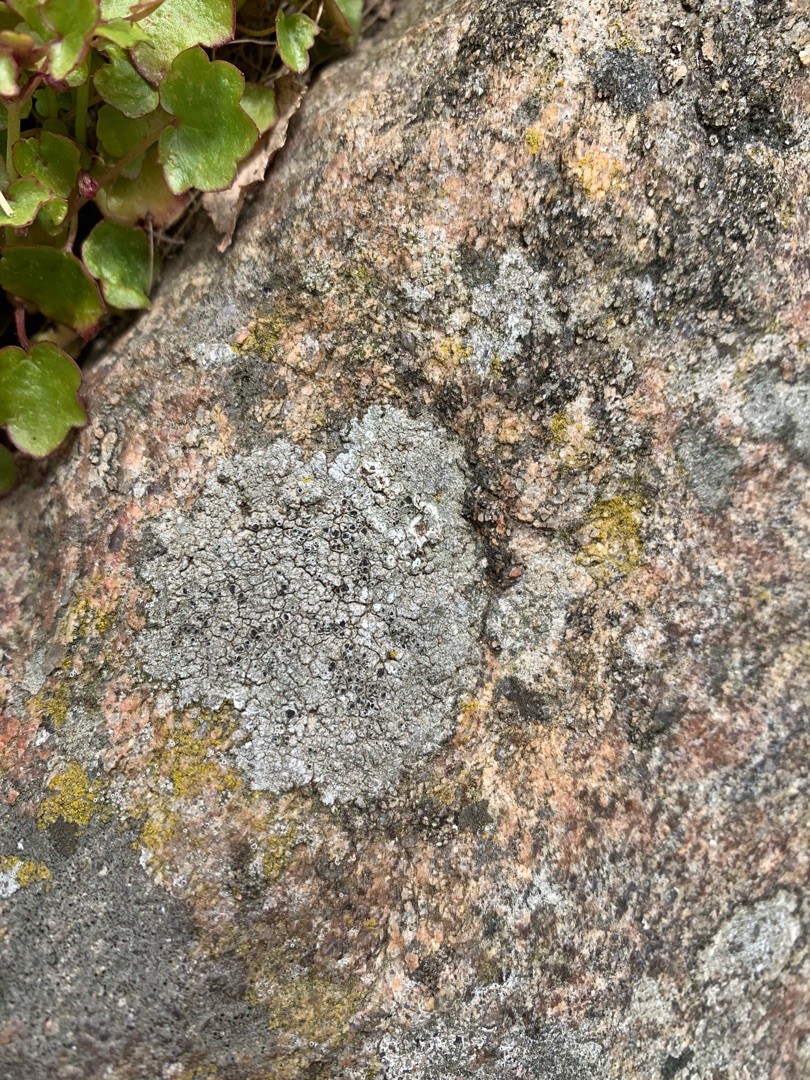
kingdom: Fungi
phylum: Ascomycota
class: Lecanoromycetes
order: Lecanorales
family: Tephromelataceae
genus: Tephromela
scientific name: Tephromela atra
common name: Sortfrugtet kantskivelav
